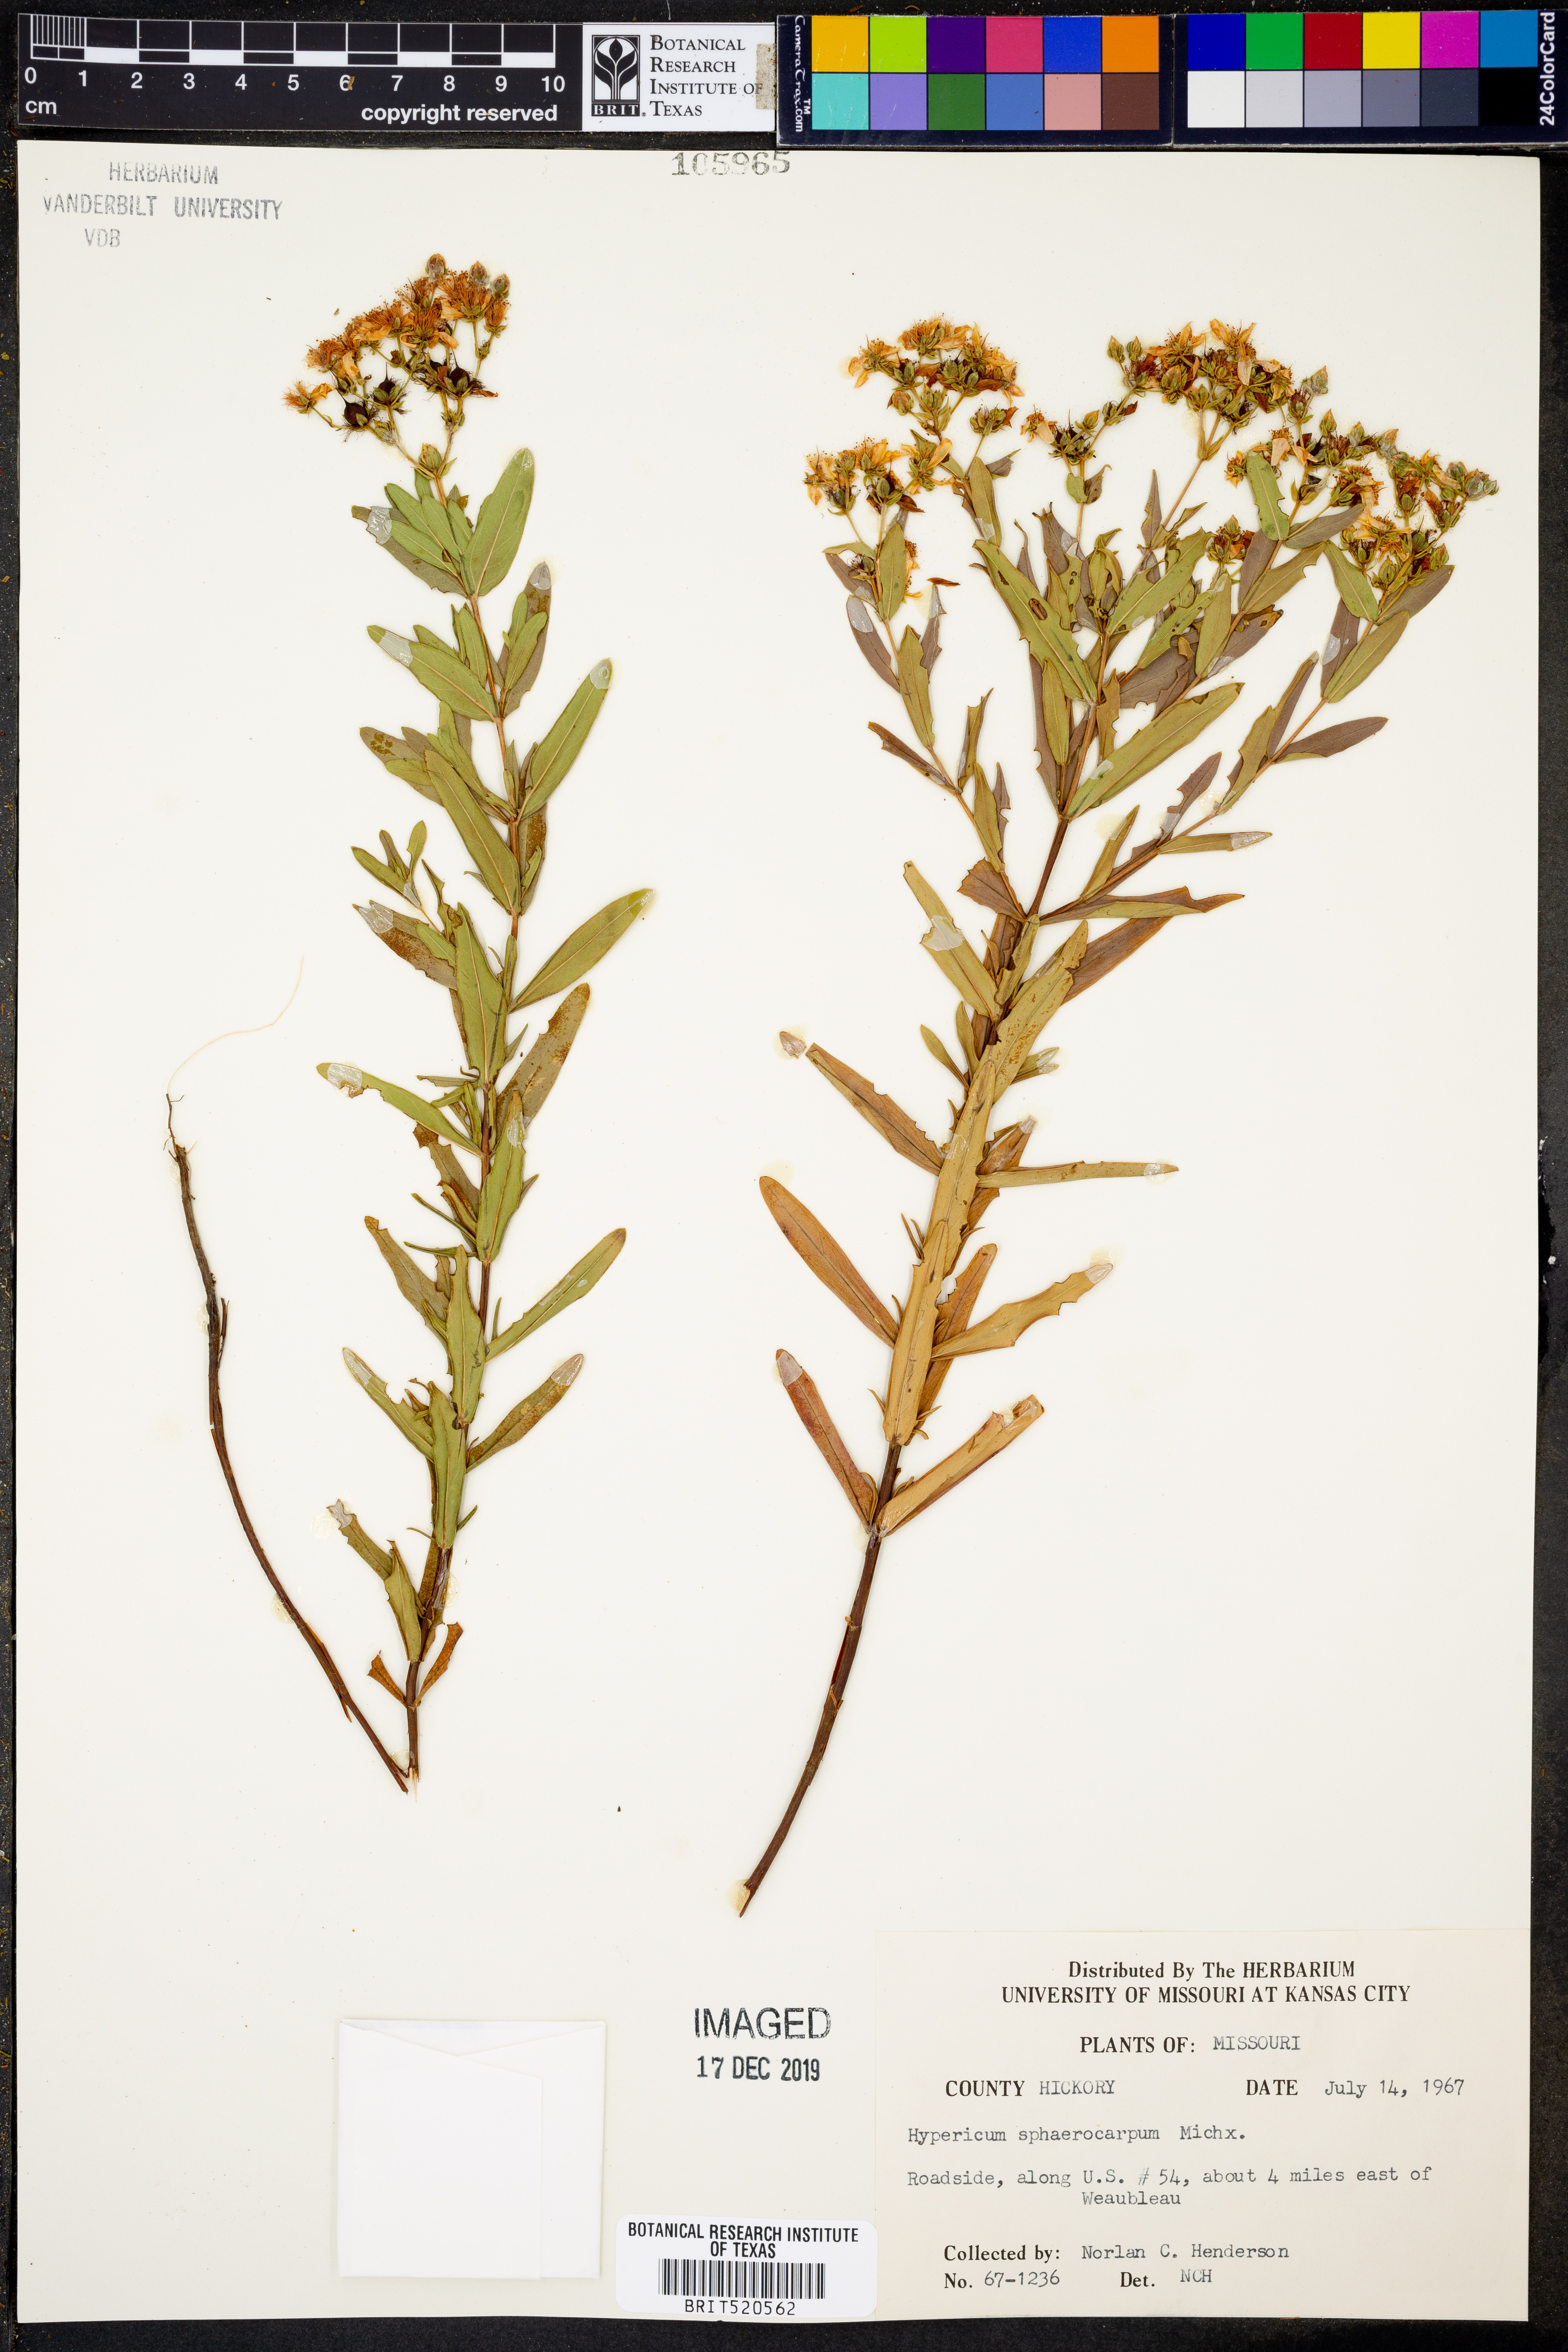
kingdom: Plantae
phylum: Tracheophyta
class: Magnoliopsida
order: Malpighiales
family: Hypericaceae
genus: Hypericum
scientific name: Hypericum sphaerocarpum
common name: Round-fruited st. john's-wort
